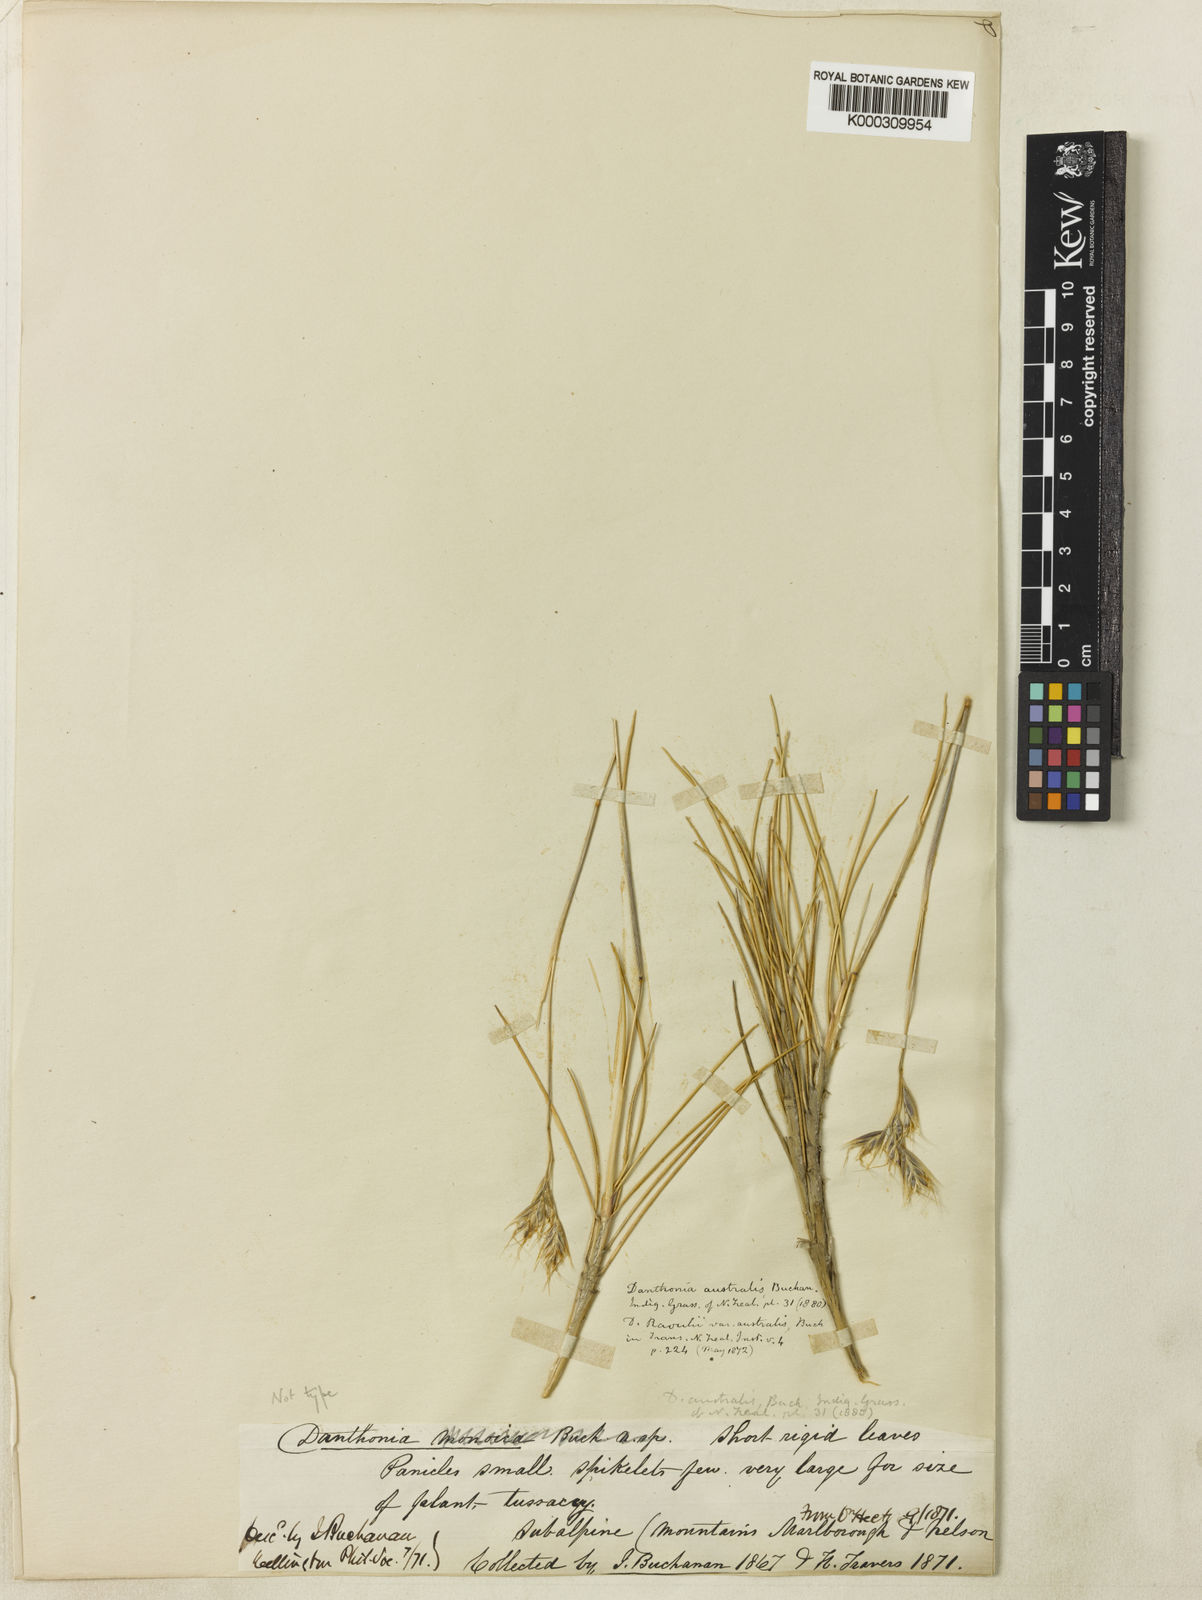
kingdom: Plantae
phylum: Tracheophyta
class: Liliopsida
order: Poales
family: Poaceae
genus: Chionochloa
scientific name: Chionochloa australis
